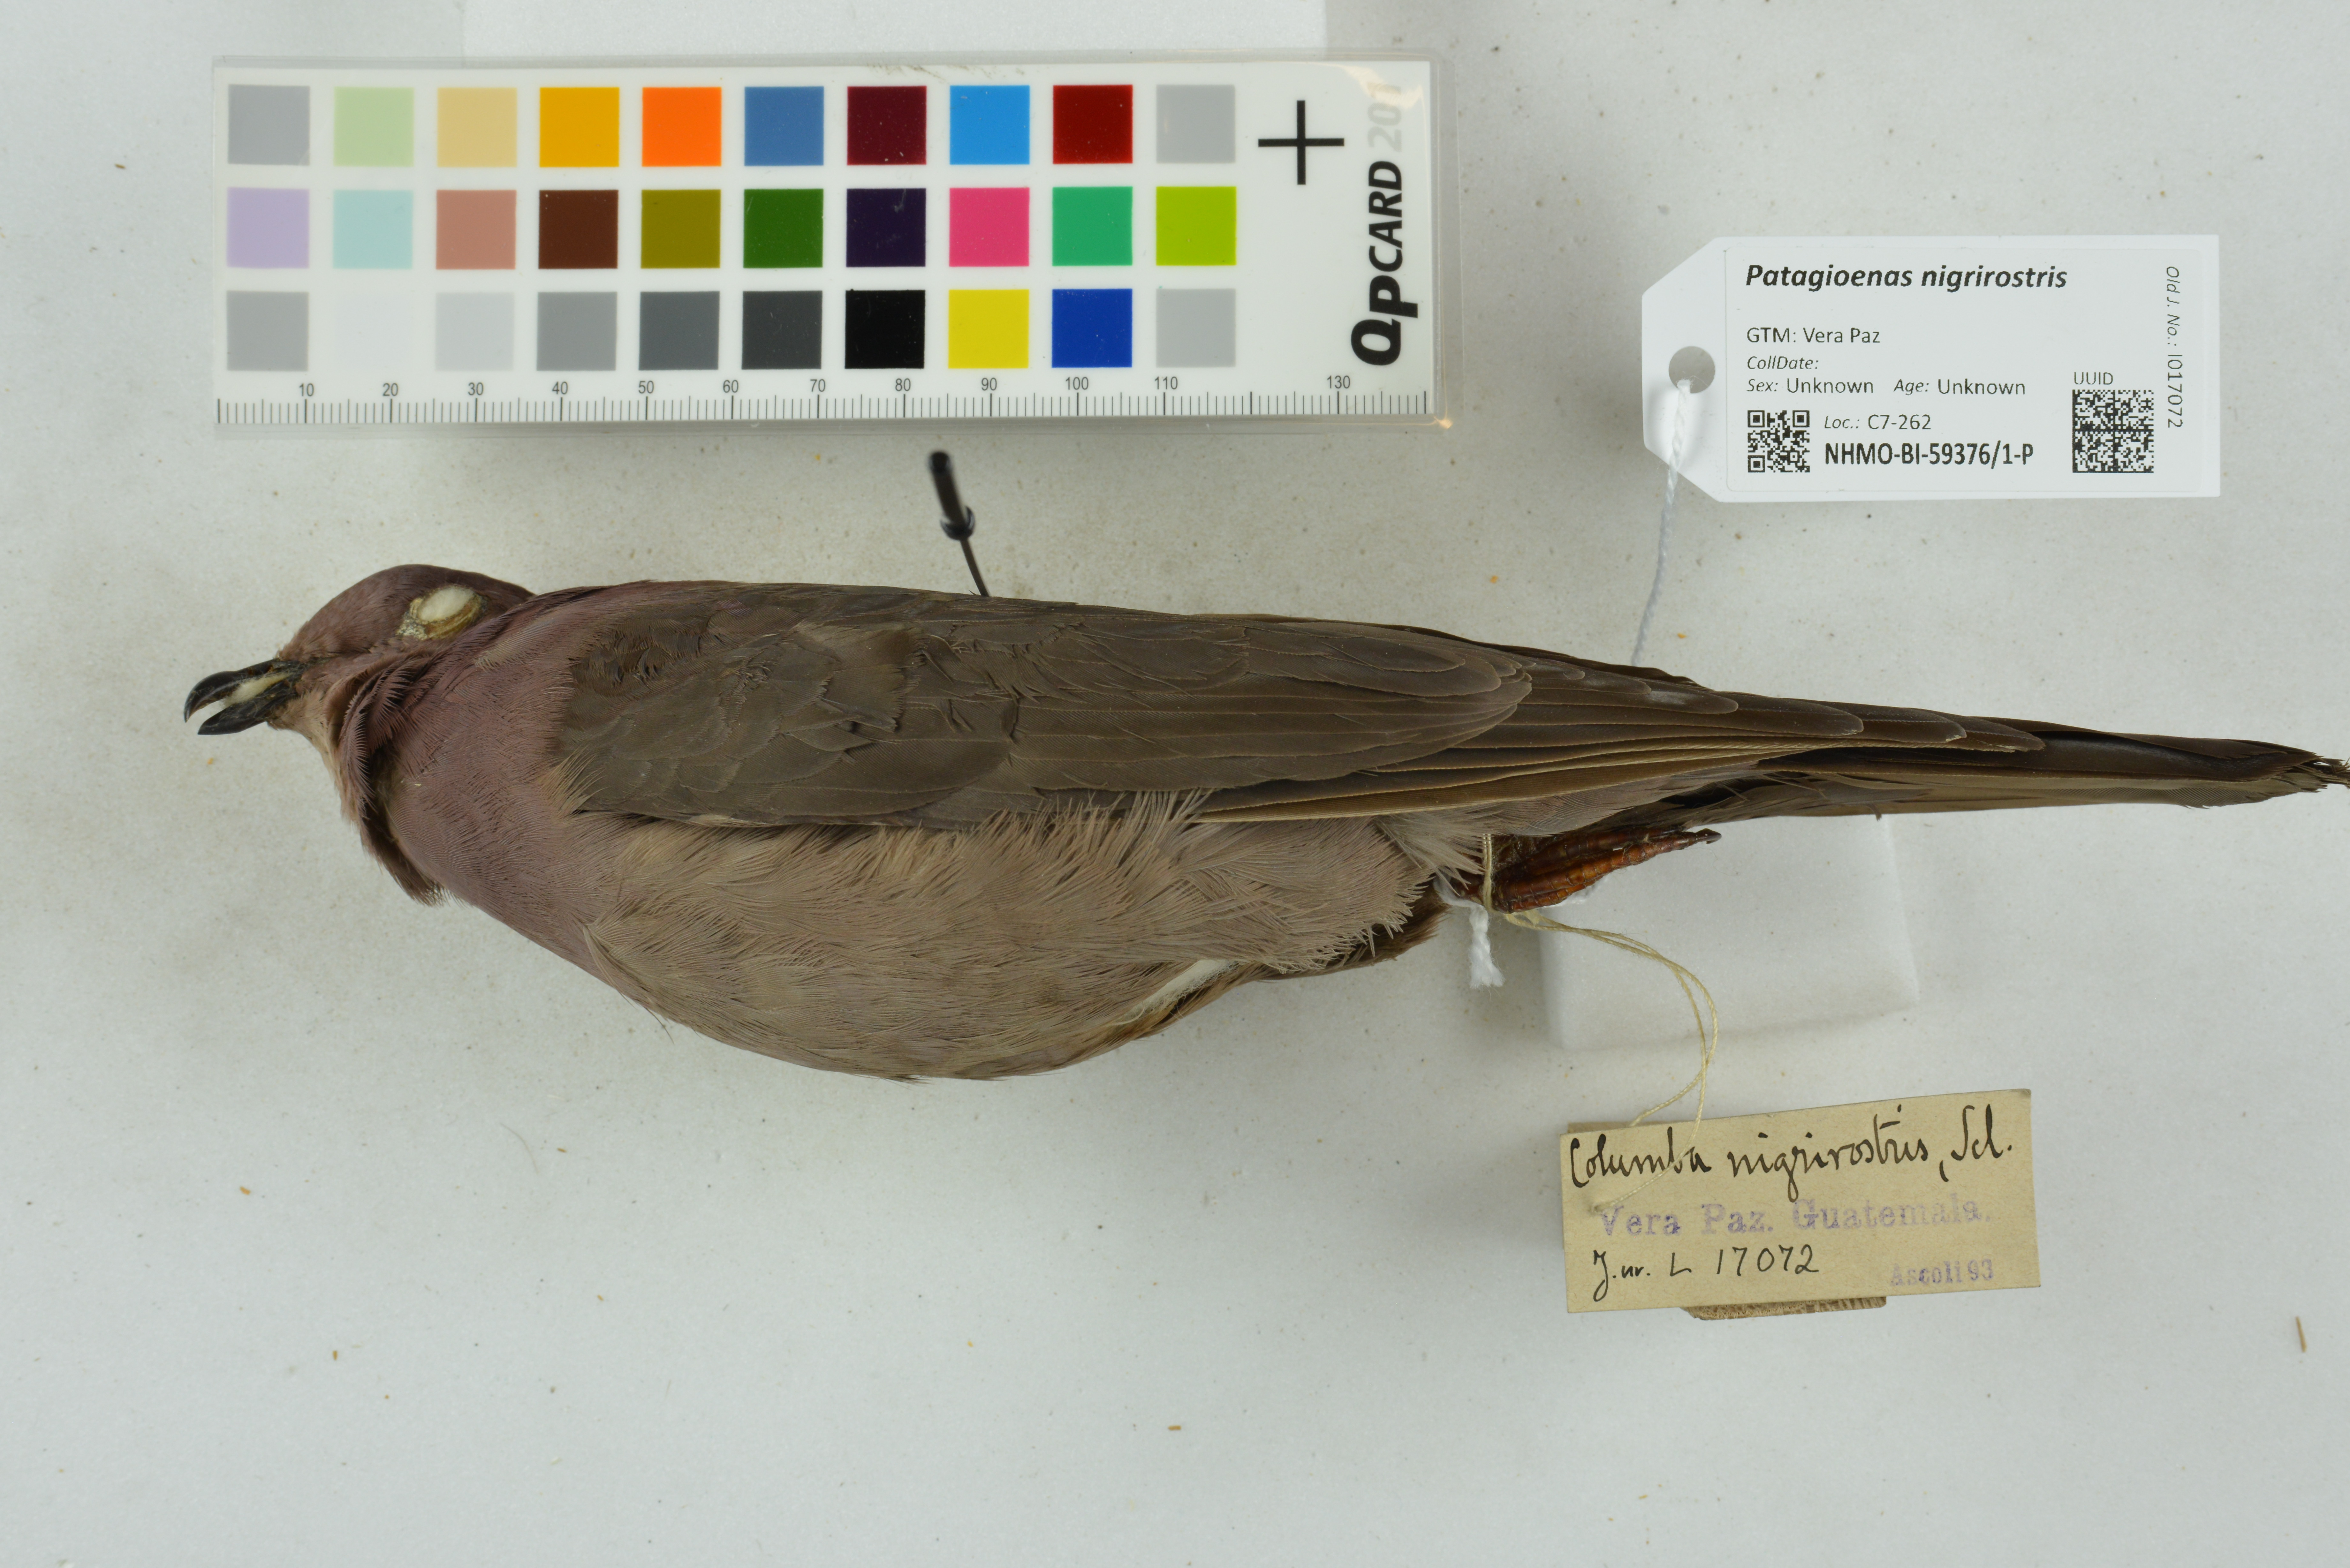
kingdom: Animalia
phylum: Chordata
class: Aves
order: Columbiformes
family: Columbidae
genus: Patagioenas
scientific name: Patagioenas nigrirostris
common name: Short-billed pigeon
